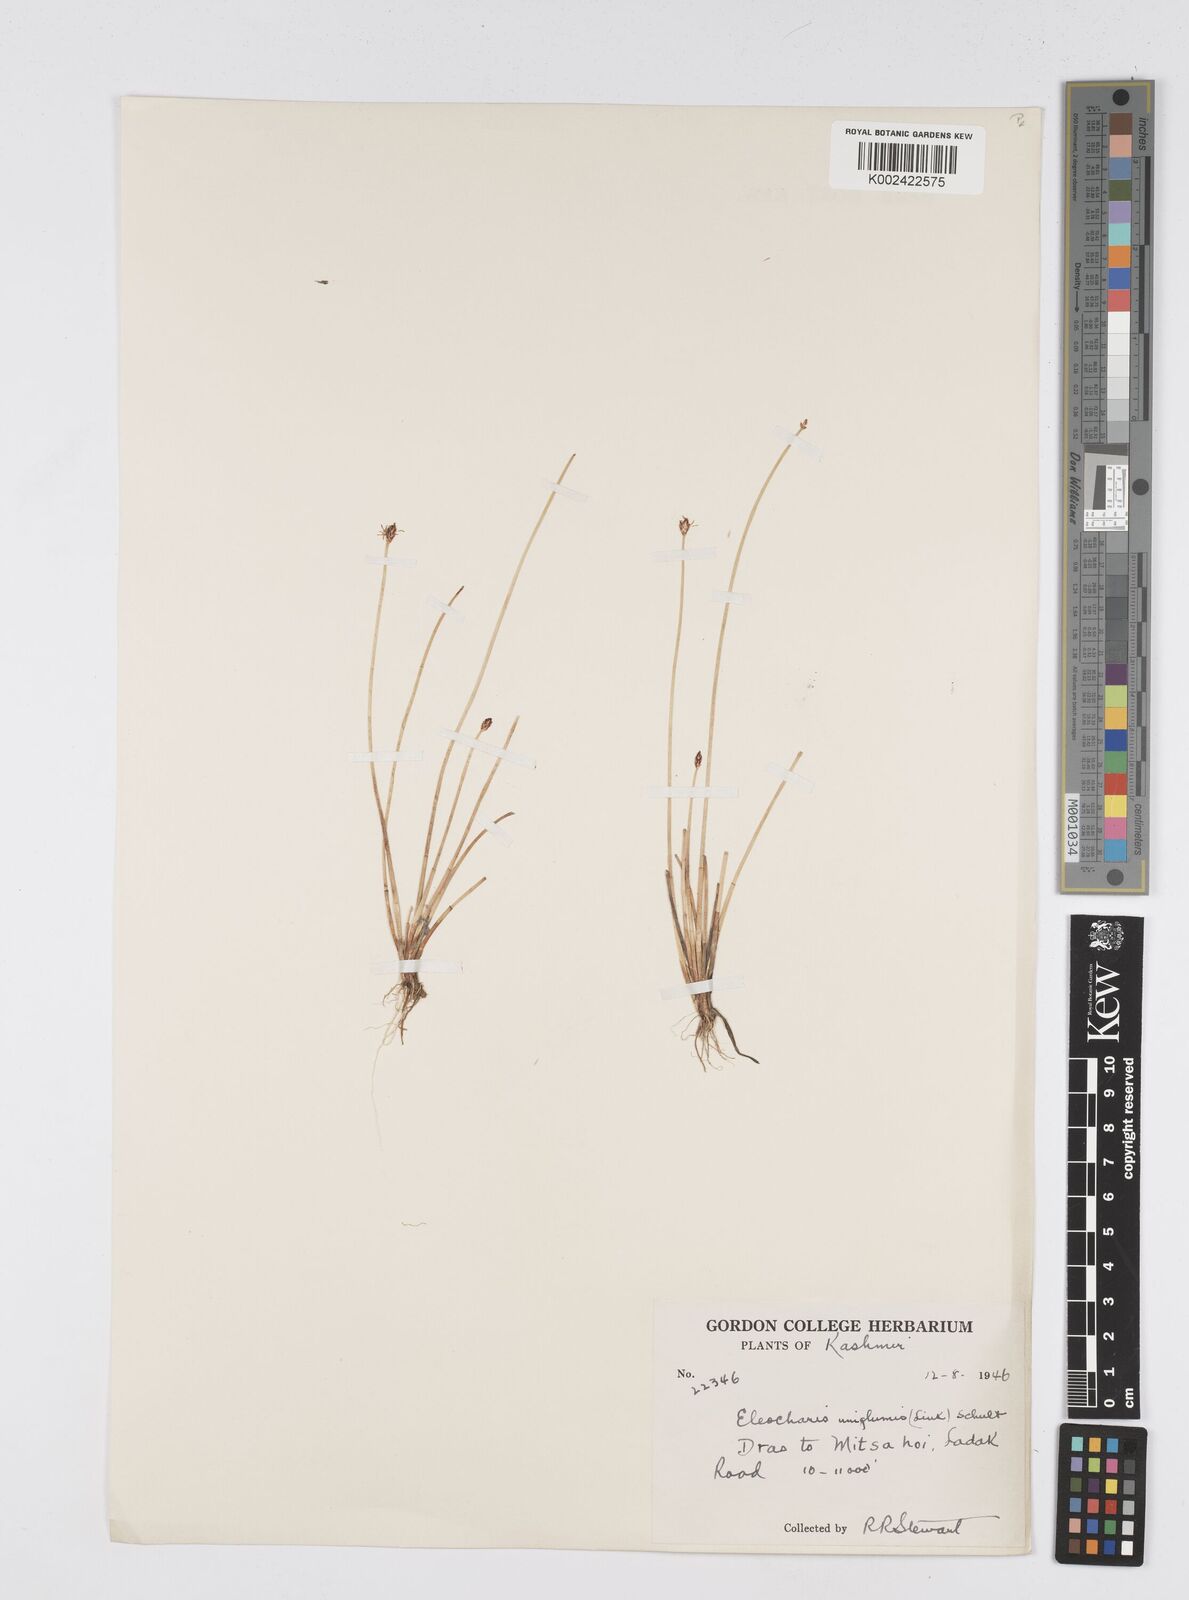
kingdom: Plantae
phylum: Tracheophyta
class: Liliopsida
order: Poales
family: Cyperaceae
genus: Eleocharis
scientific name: Eleocharis uniglumis
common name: Slender spike-rush
